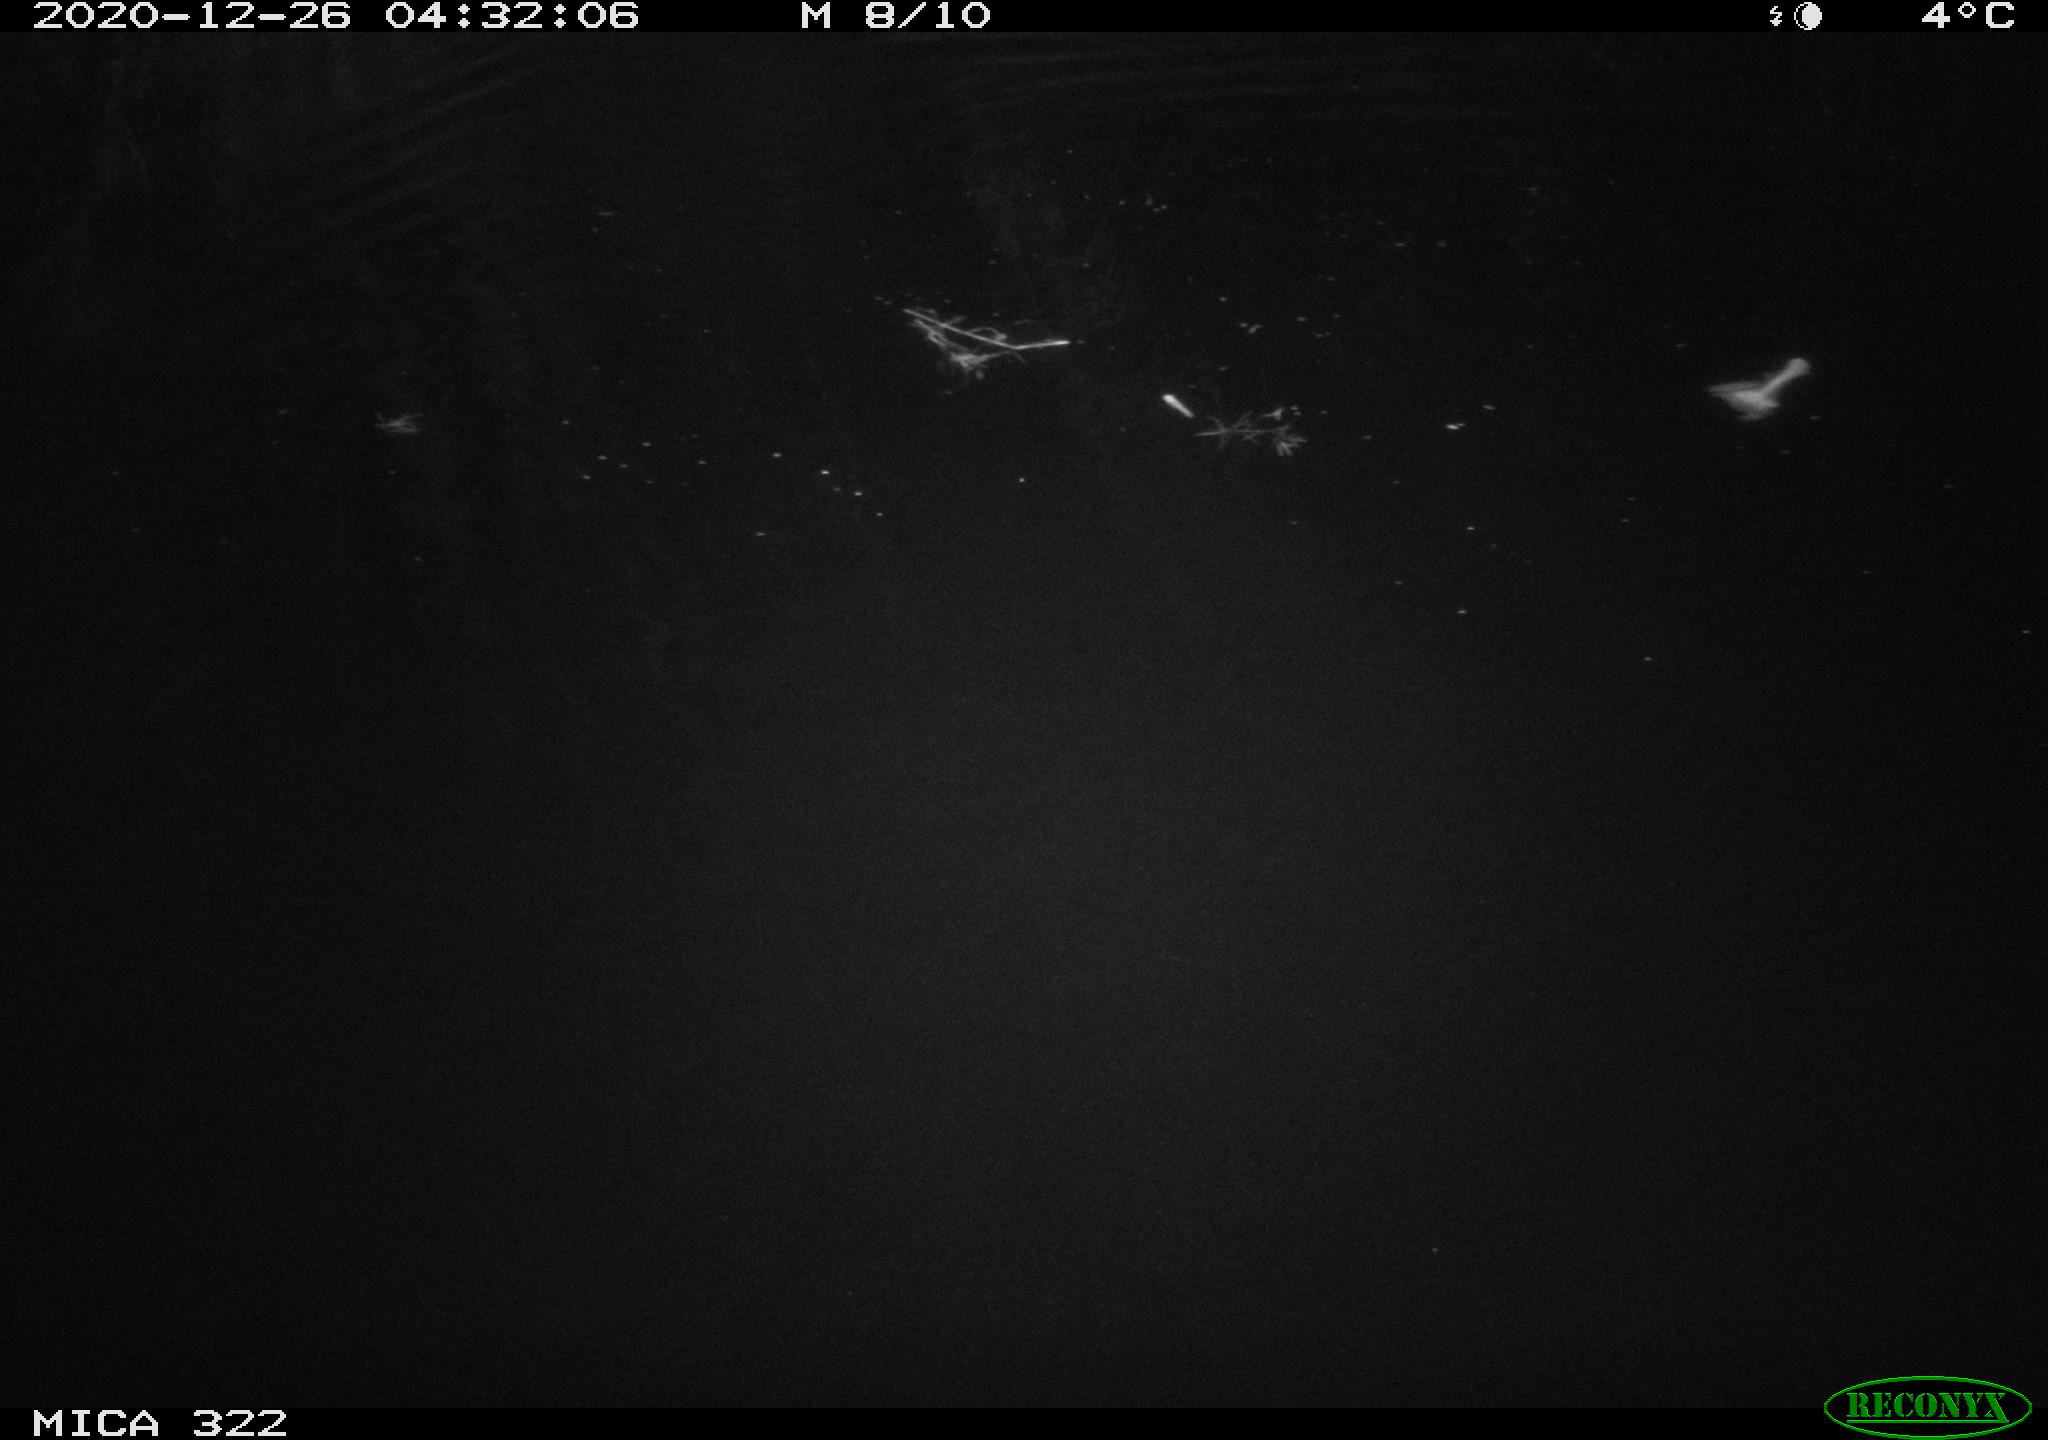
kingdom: Animalia
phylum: Chordata
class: Mammalia
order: Rodentia
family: Muridae
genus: Rattus
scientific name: Rattus norvegicus
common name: Brown rat
